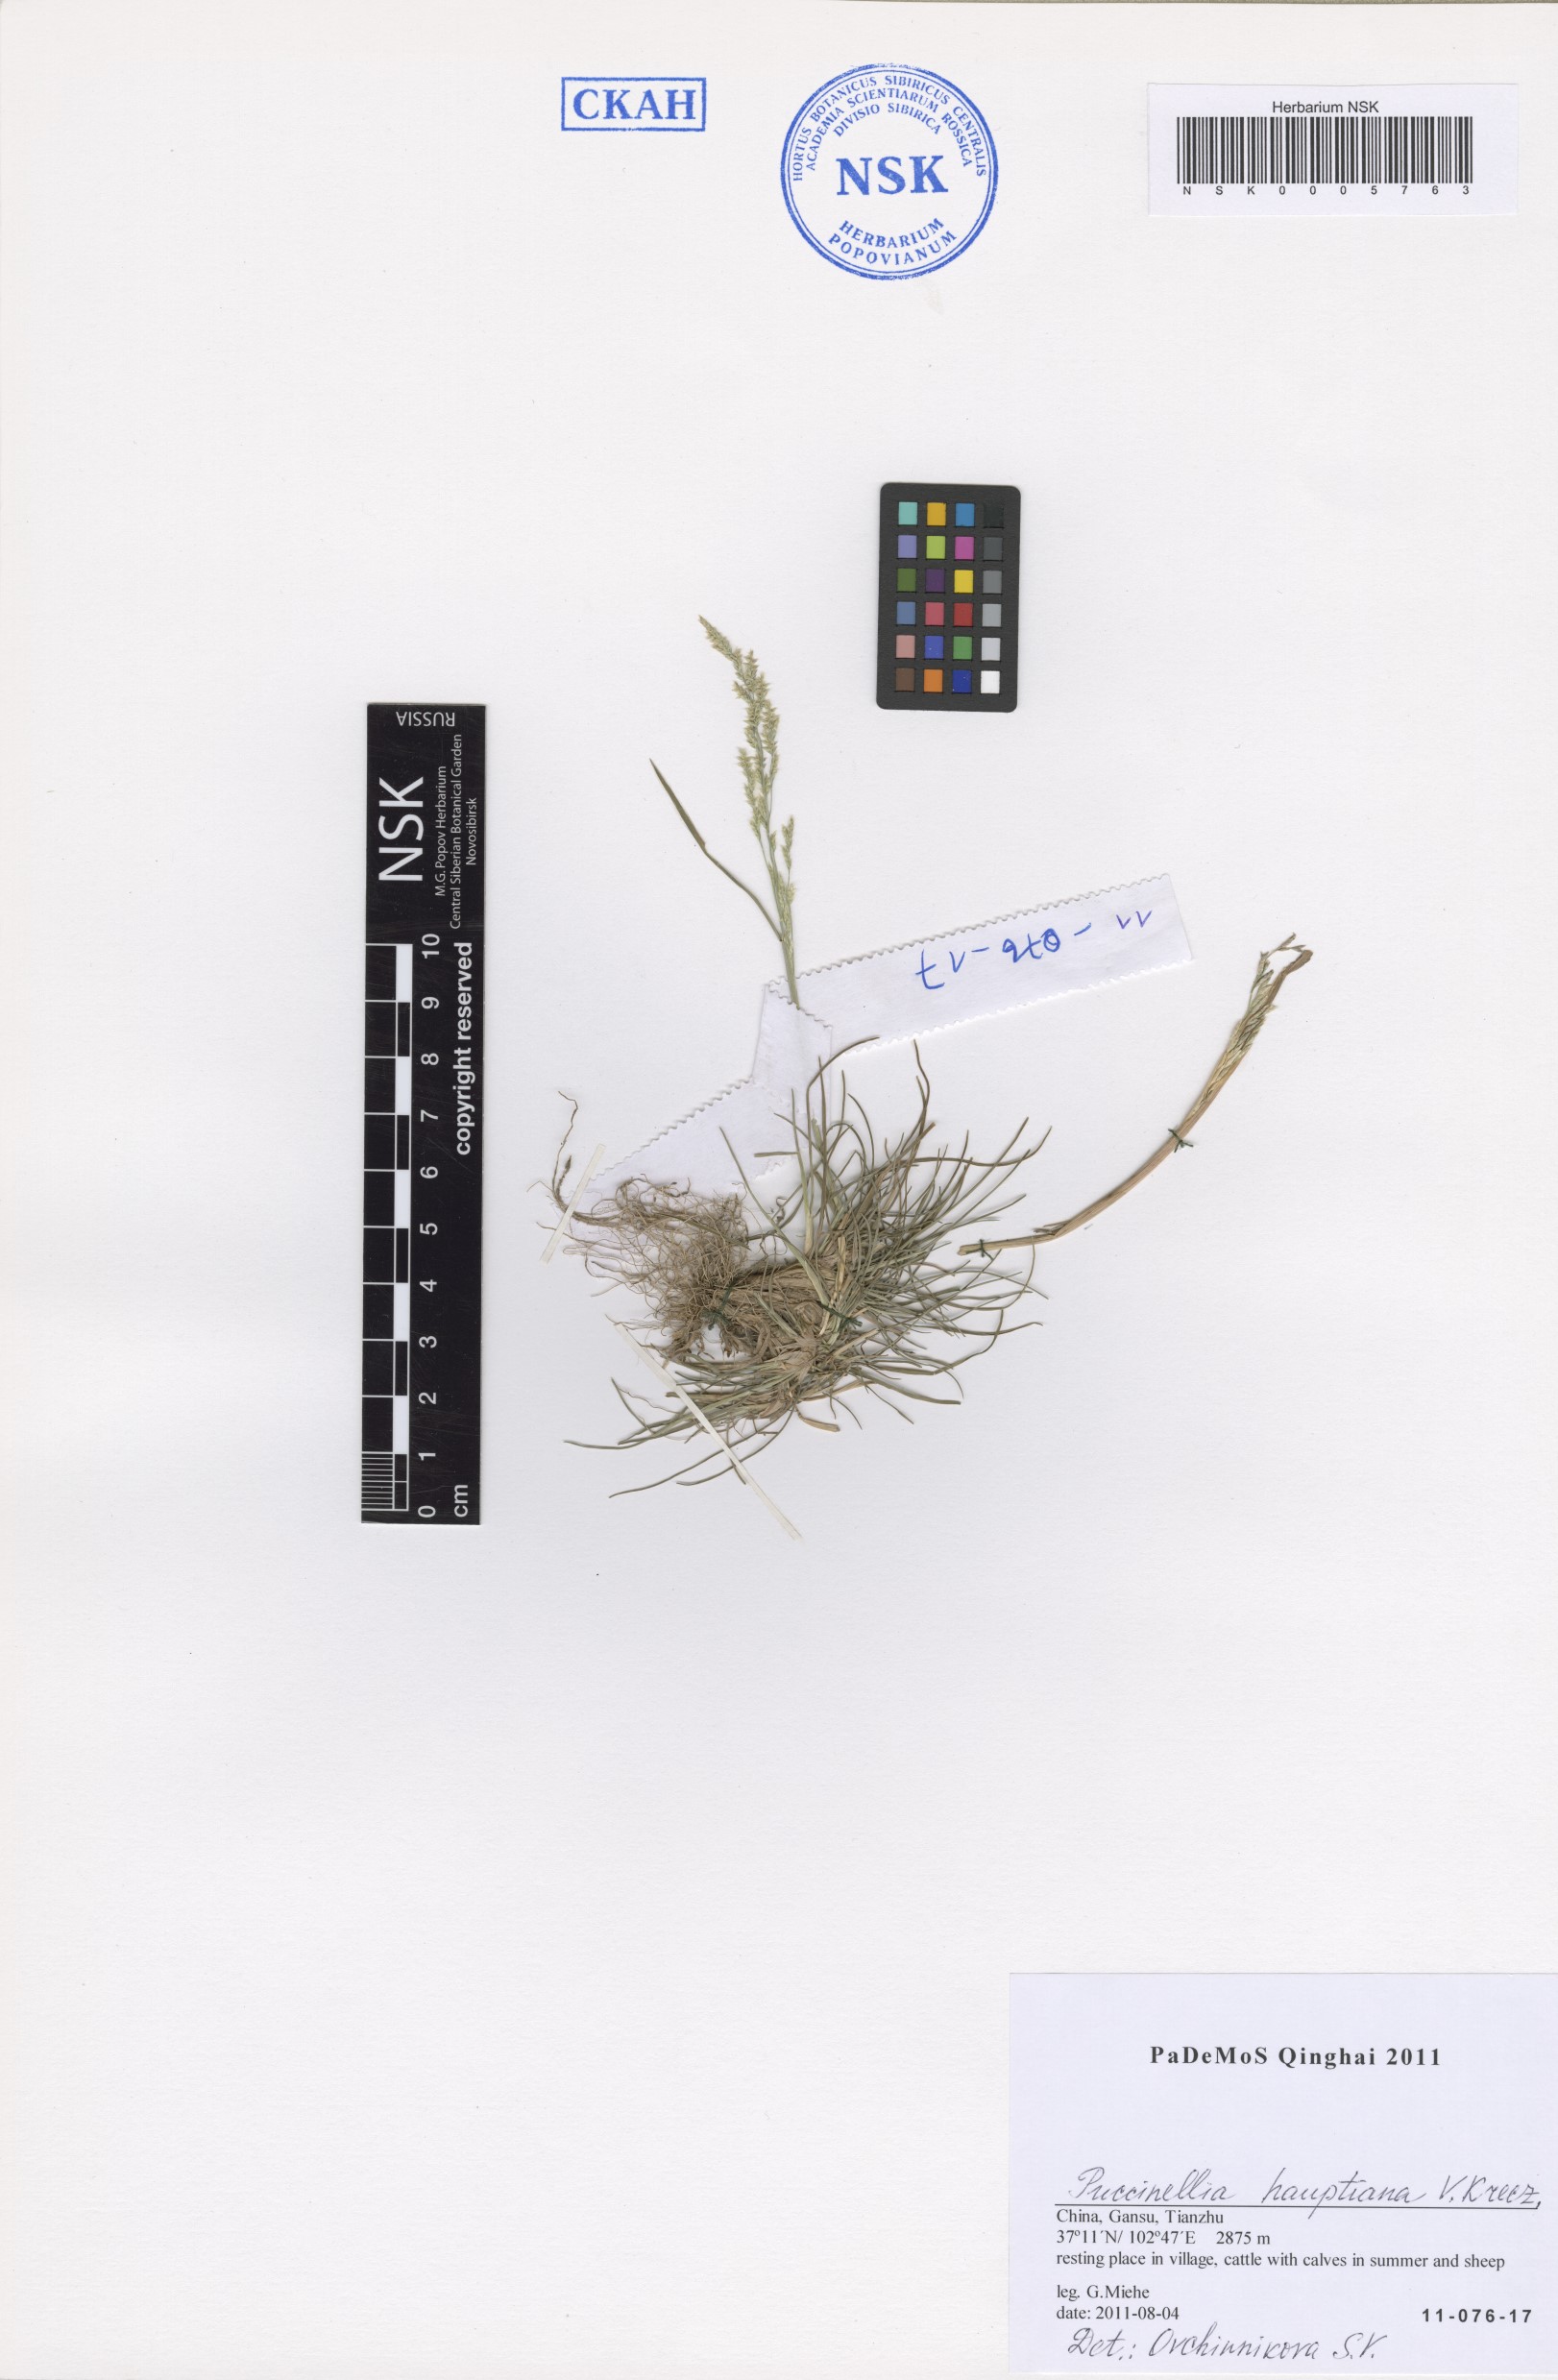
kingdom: Plantae
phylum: Tracheophyta
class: Liliopsida
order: Poales
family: Poaceae
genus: Puccinellia
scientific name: Puccinellia hauptiana
